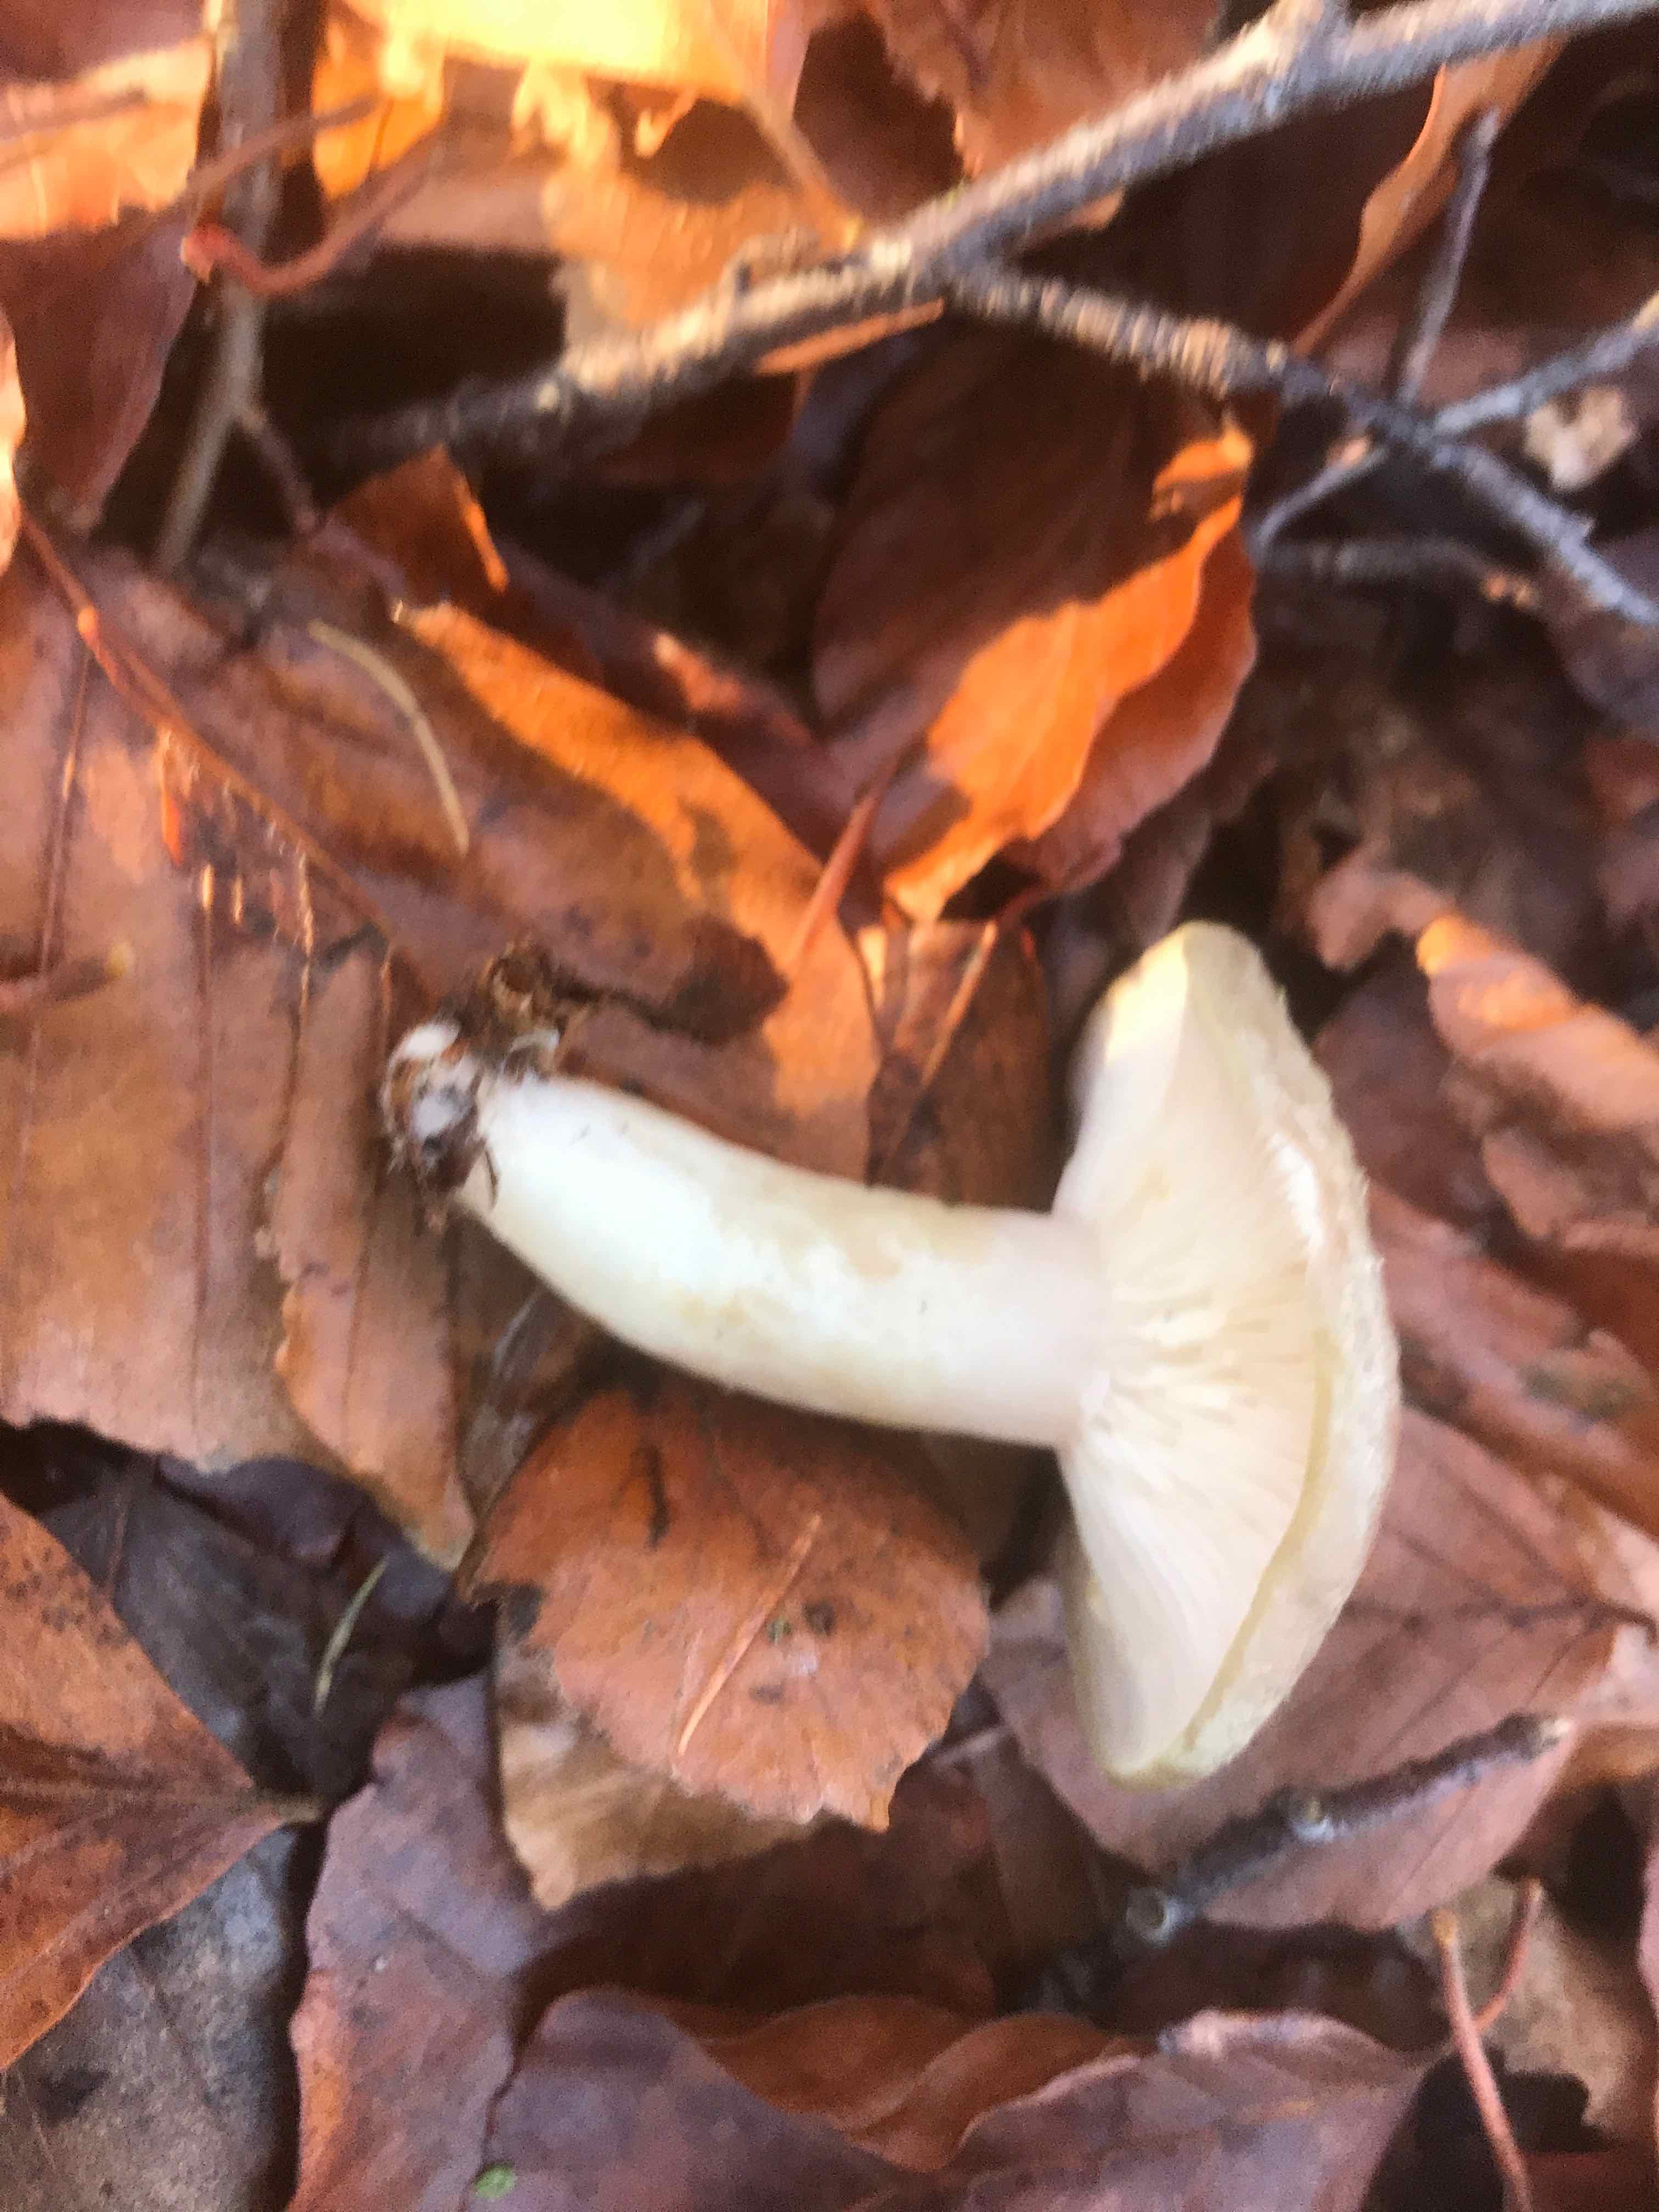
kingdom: Fungi
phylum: Basidiomycota
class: Agaricomycetes
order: Russulales
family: Russulaceae
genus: Lactarius
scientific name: Lactarius blennius
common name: dråbeplettet mælkehat
